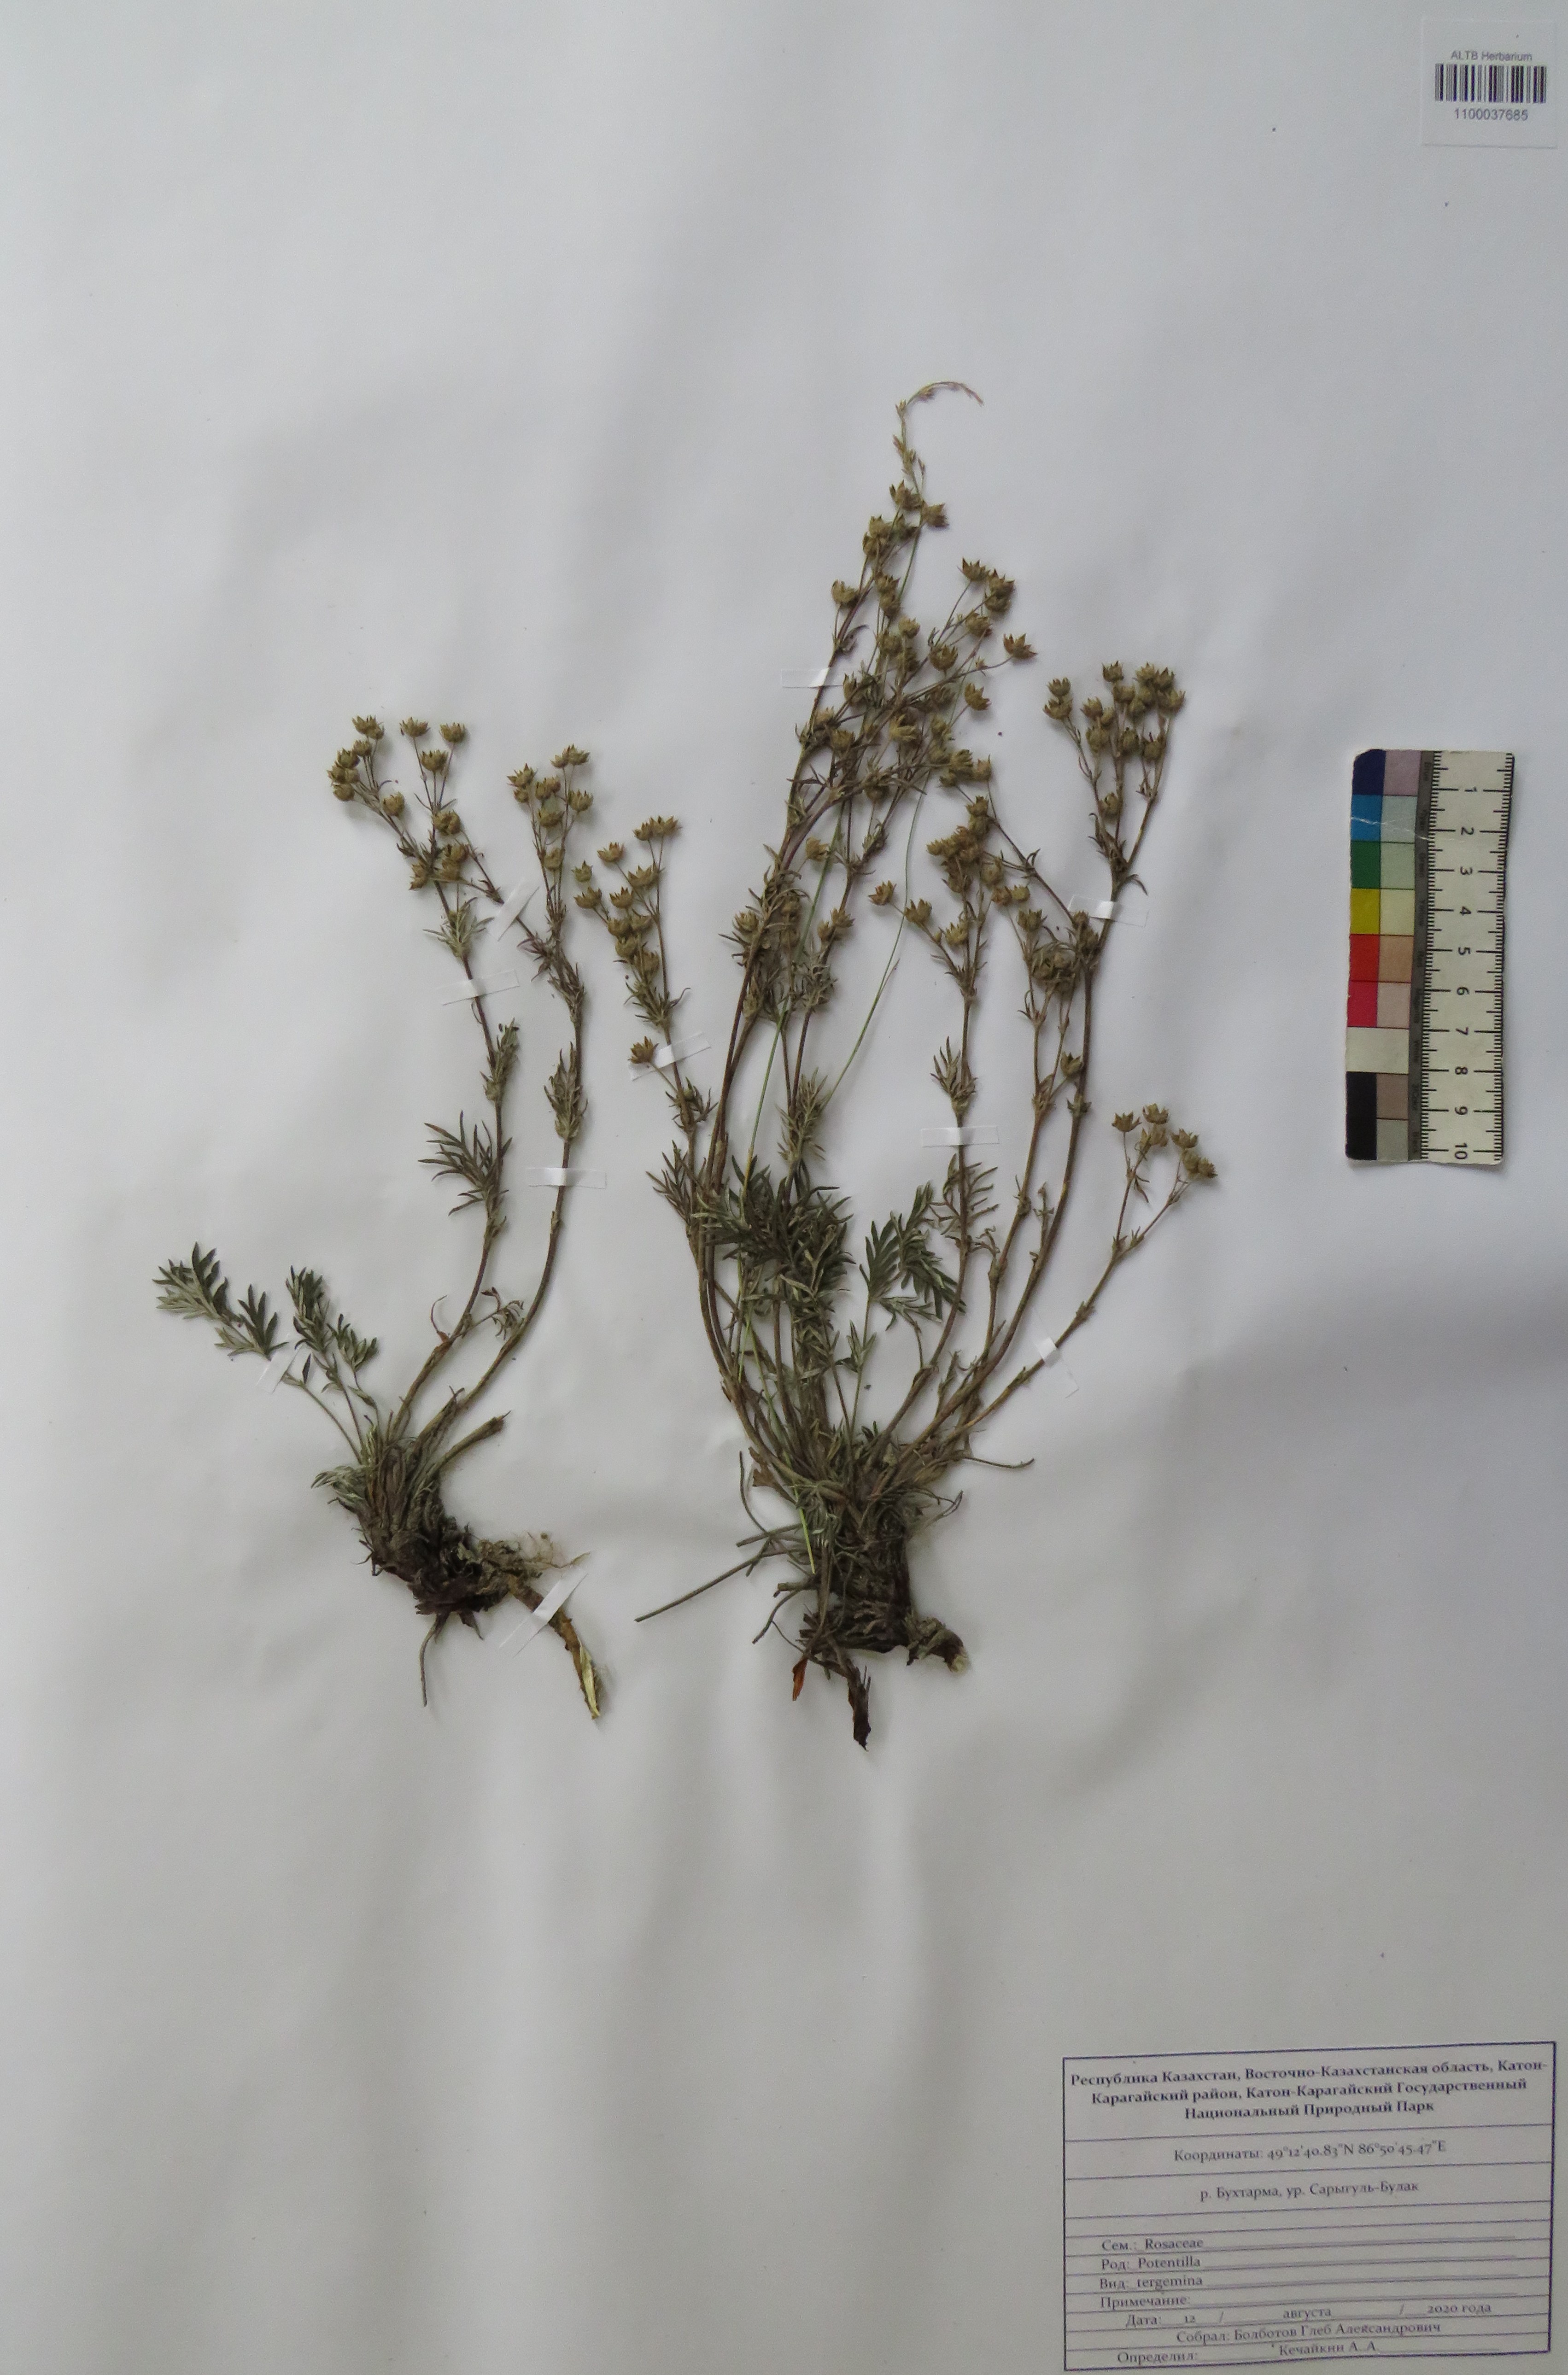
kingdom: Plantae
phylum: Tracheophyta
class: Magnoliopsida
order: Rosales
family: Rosaceae
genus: Potentilla
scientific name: Potentilla tergemina
